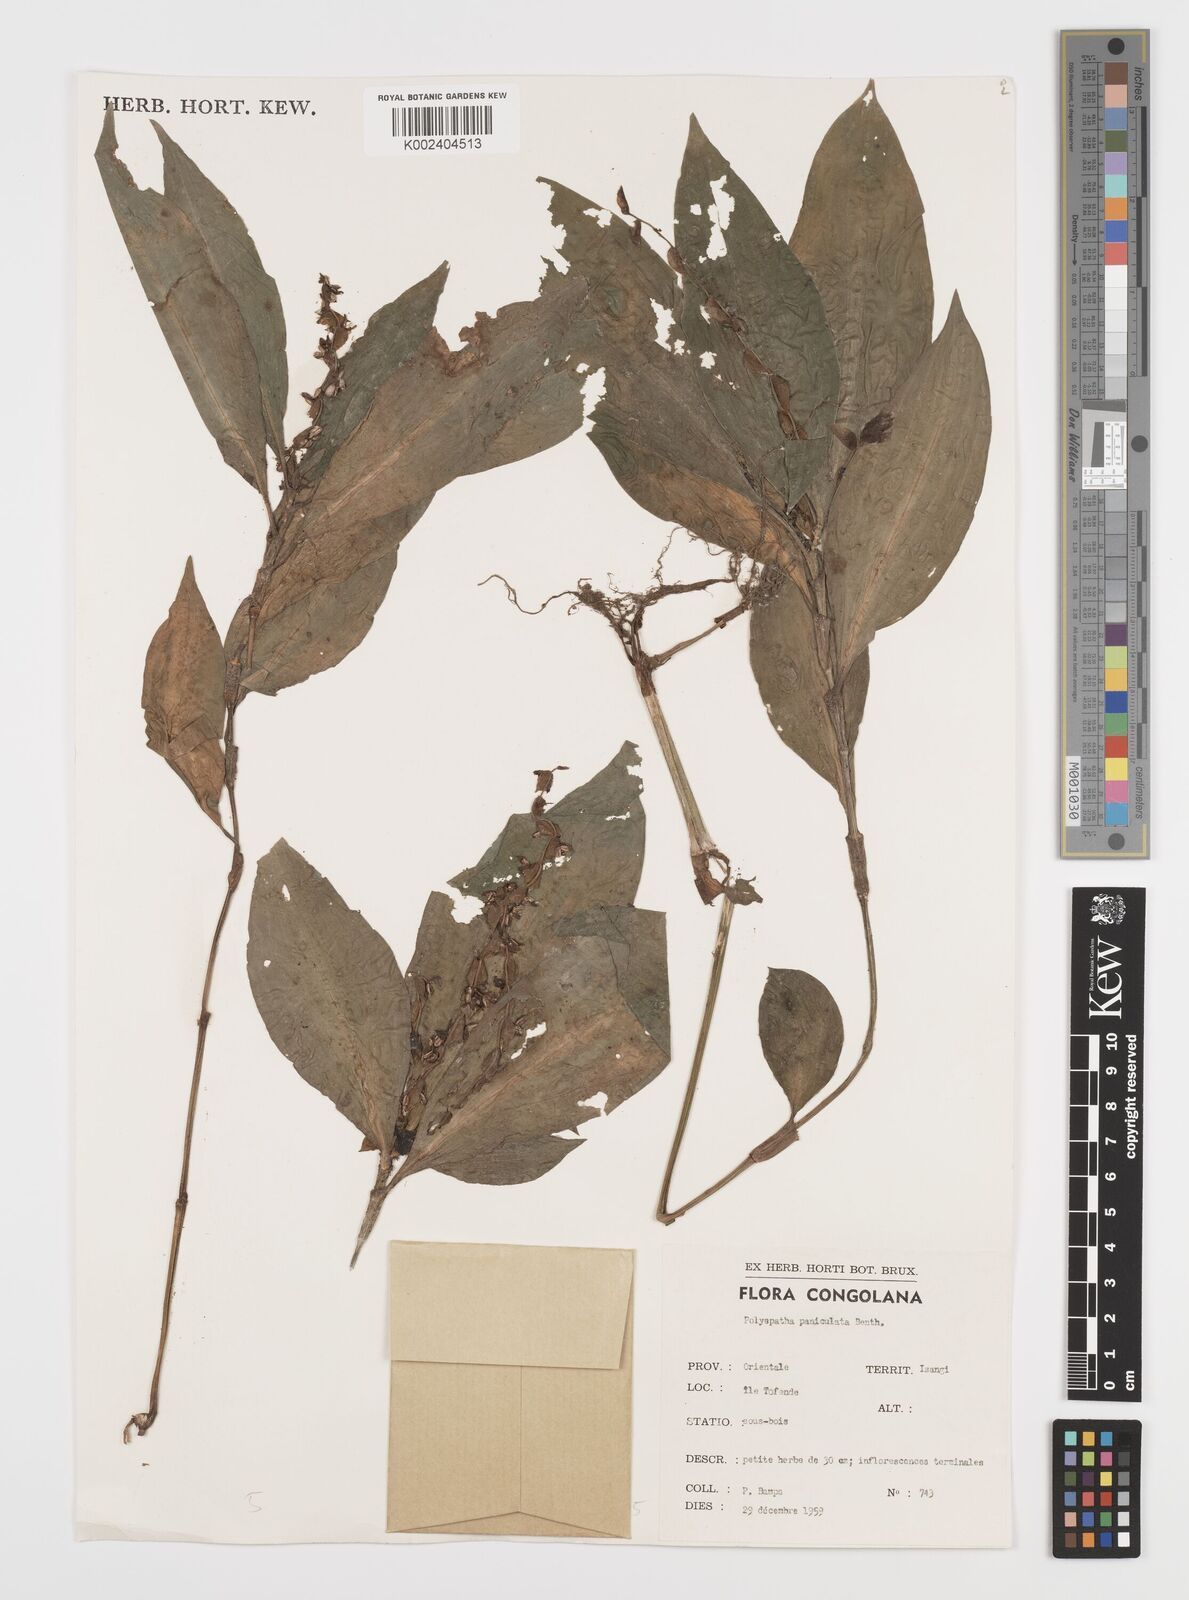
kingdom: Plantae
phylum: Tracheophyta
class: Liliopsida
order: Commelinales
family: Commelinaceae
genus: Polyspatha
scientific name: Polyspatha paniculata
